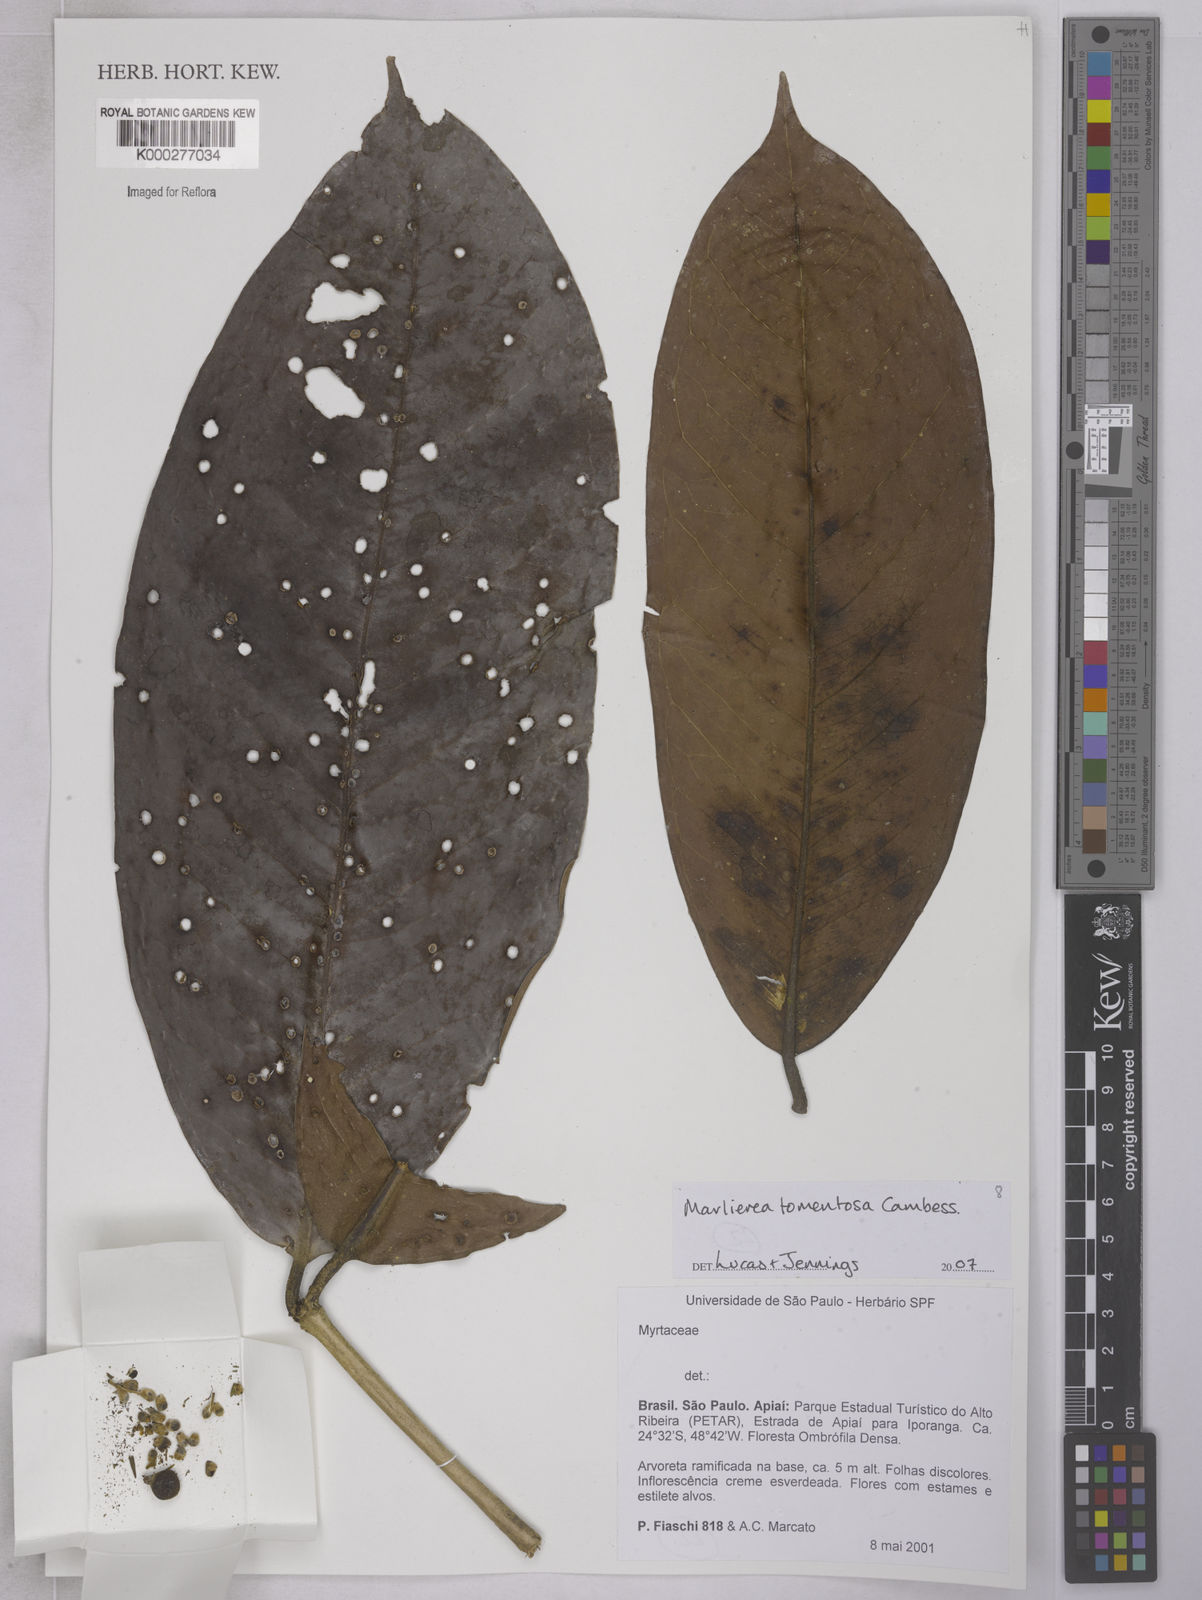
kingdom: Plantae
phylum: Tracheophyta
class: Magnoliopsida
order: Myrtales
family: Myrtaceae
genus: Myrcia
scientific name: Myrcia neotomentosa
